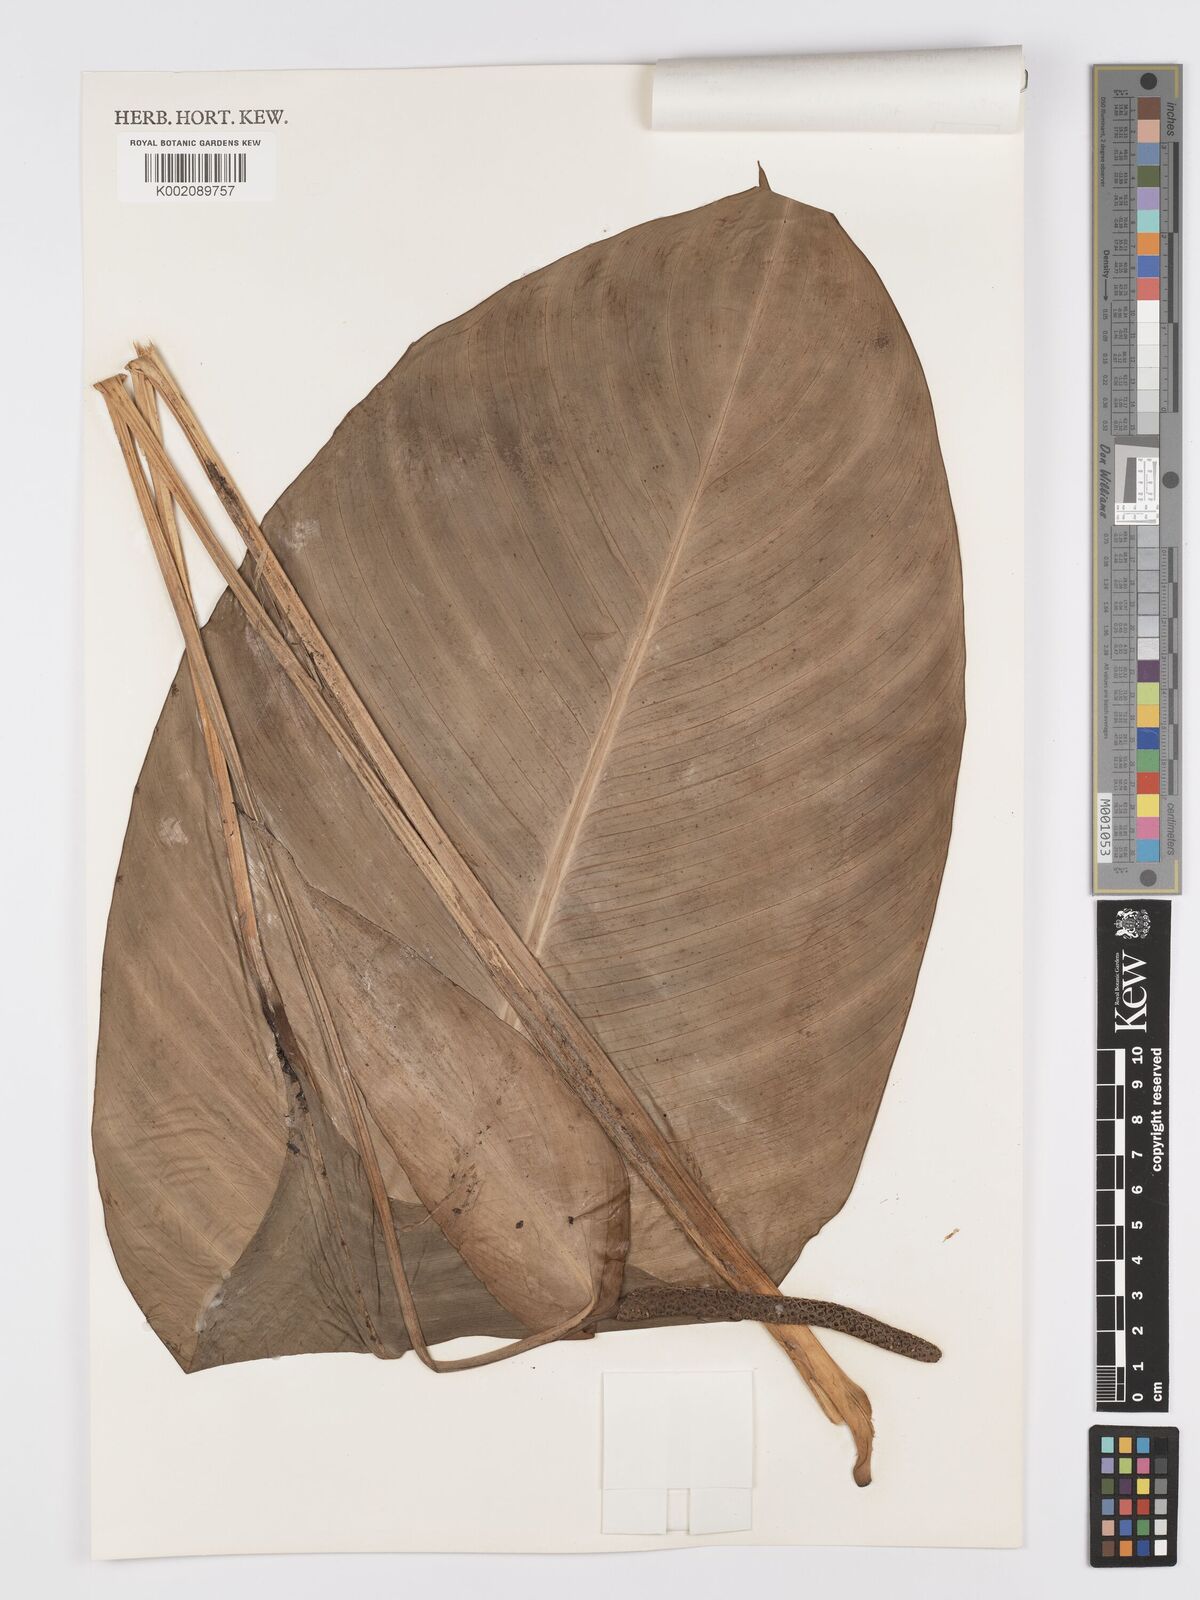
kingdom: Plantae
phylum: Tracheophyta
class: Liliopsida
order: Alismatales
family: Araceae
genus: Spathiphyllum
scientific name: Spathiphyllum commutatum
